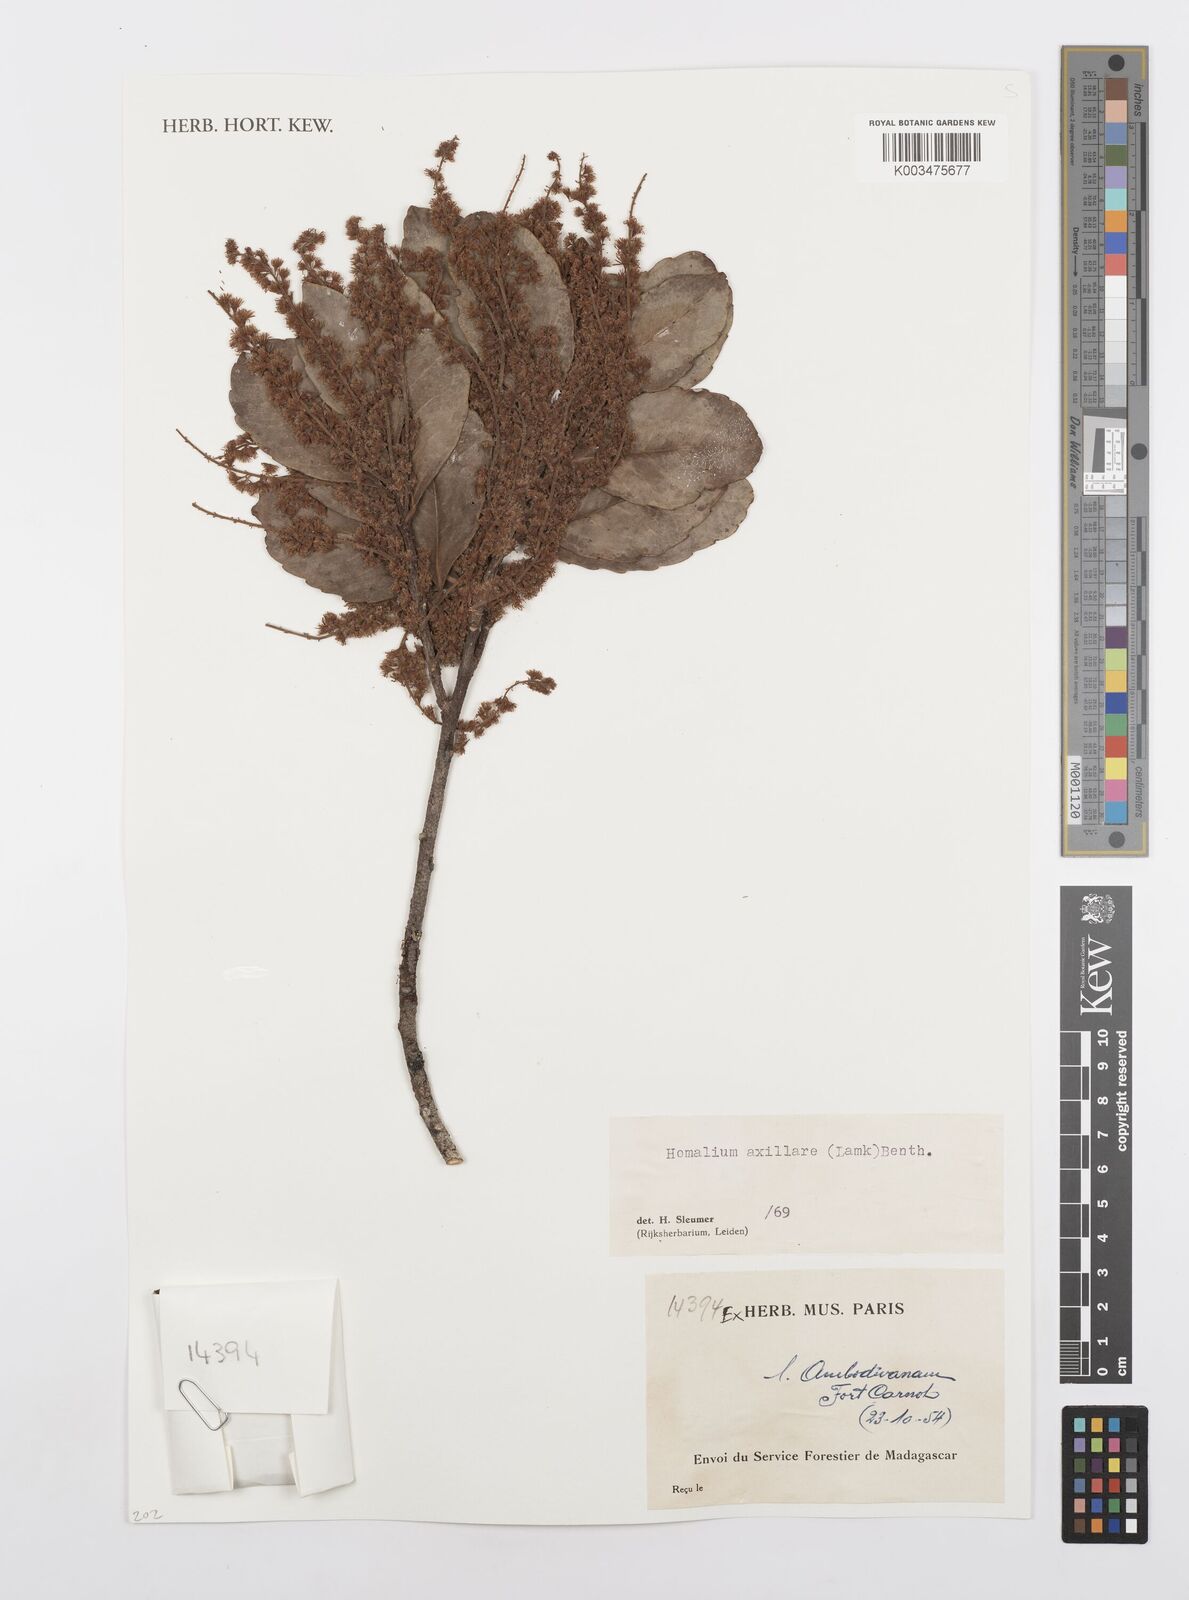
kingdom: Plantae
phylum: Tracheophyta
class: Magnoliopsida
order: Malpighiales
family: Salicaceae
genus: Homalium
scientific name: Homalium axillare
